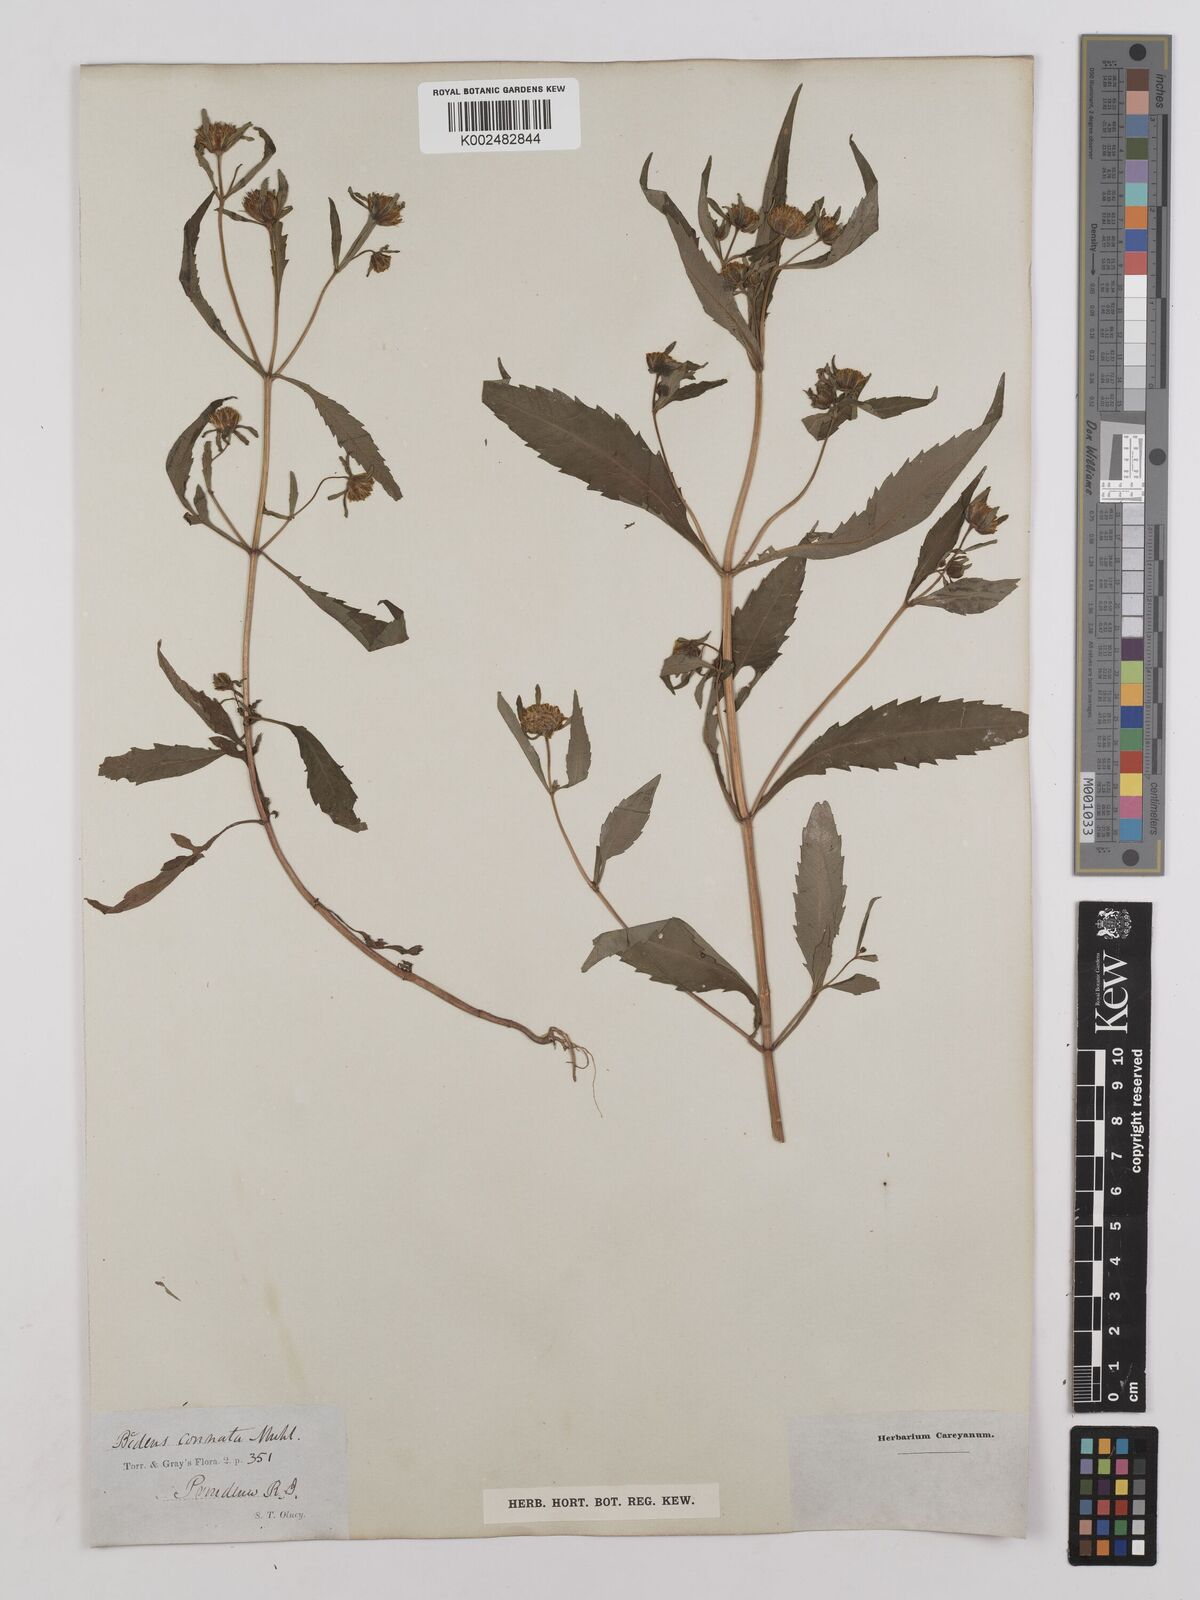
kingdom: Plantae
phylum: Tracheophyta
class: Magnoliopsida
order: Asterales
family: Asteraceae
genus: Bidens
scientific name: Bidens connata
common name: London bur-marigold
